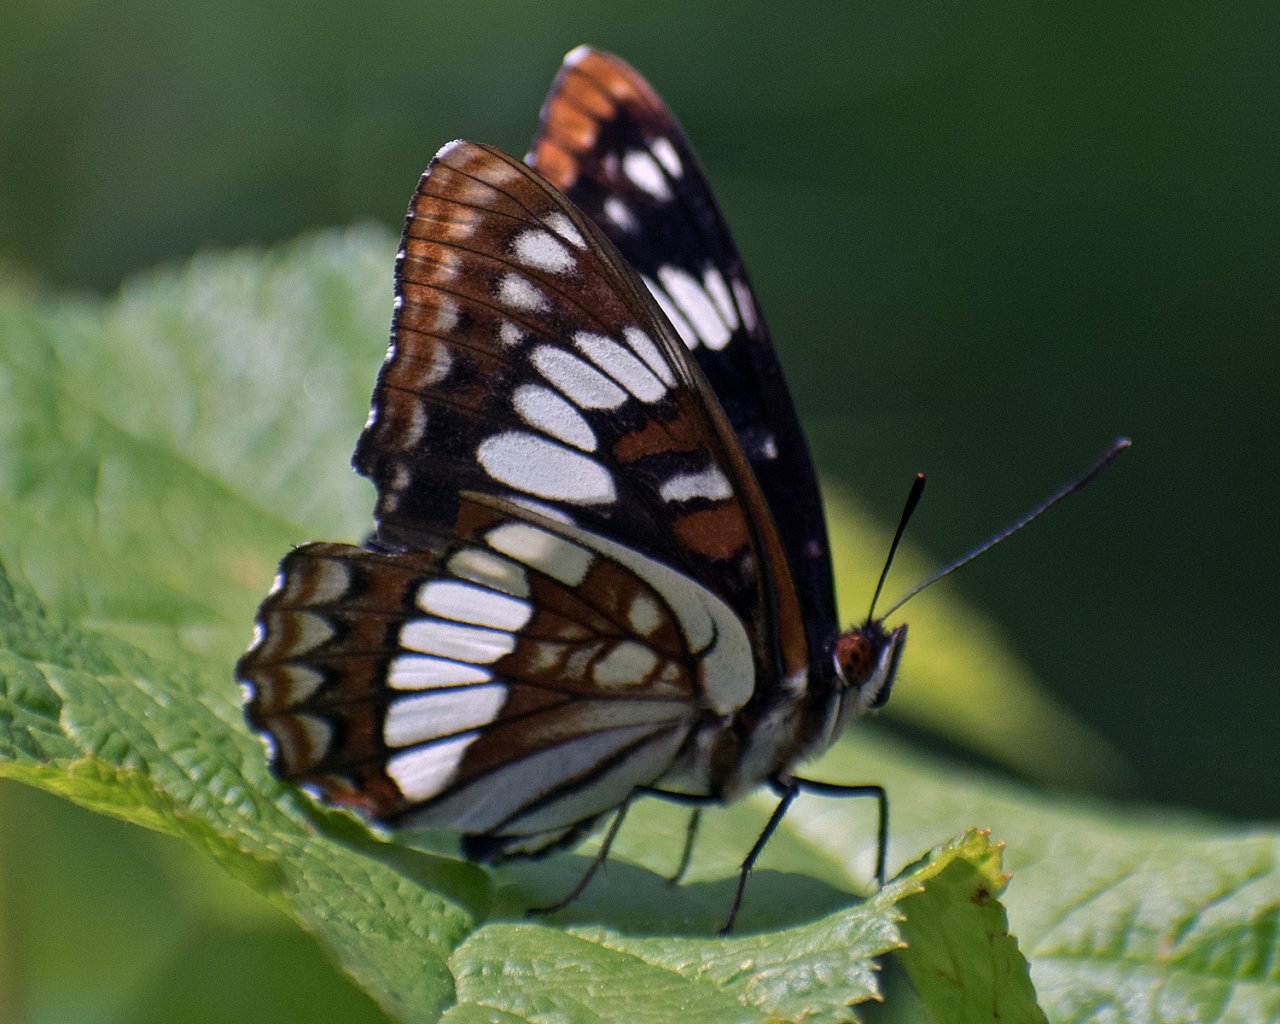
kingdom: Animalia
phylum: Arthropoda
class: Insecta
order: Lepidoptera
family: Nymphalidae
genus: Limenitis
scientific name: Limenitis lorquini
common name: Lorquin's Admiral
